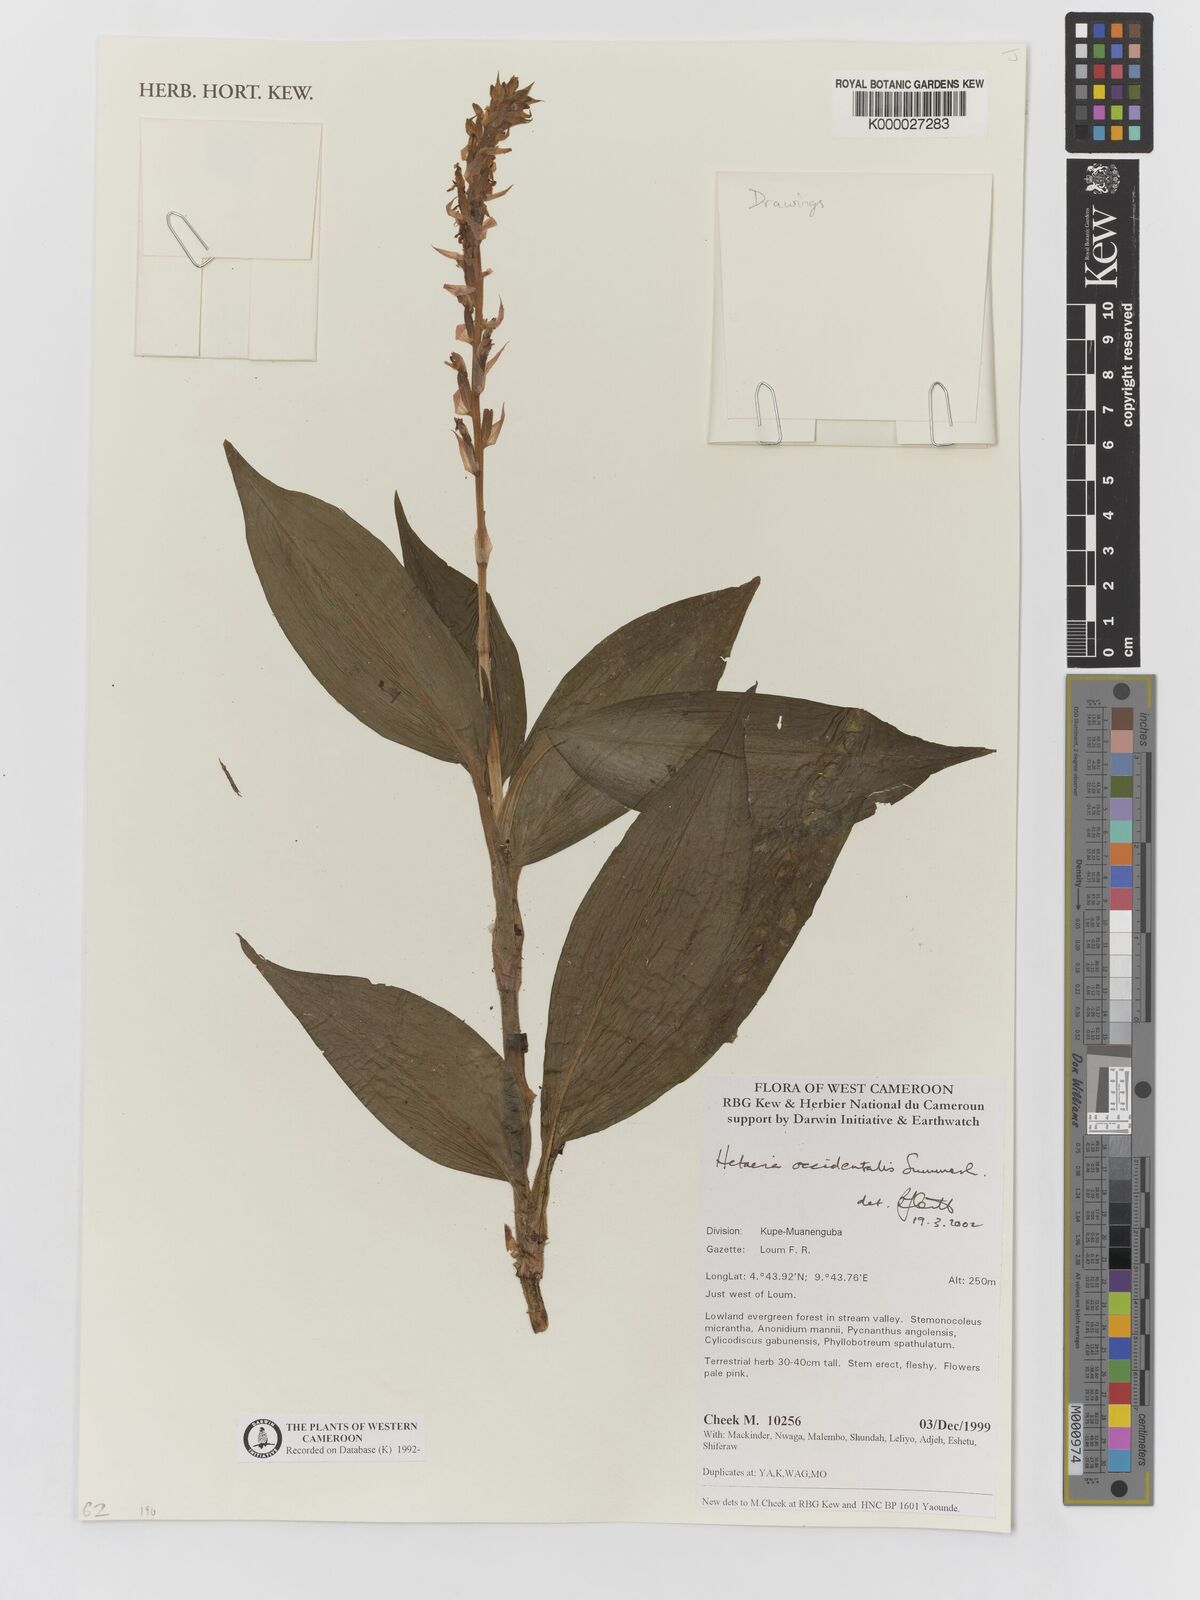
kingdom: Plantae
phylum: Tracheophyta
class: Liliopsida
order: Asparagales
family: Orchidaceae
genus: Hetaeria
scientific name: Hetaeria occidentalis
